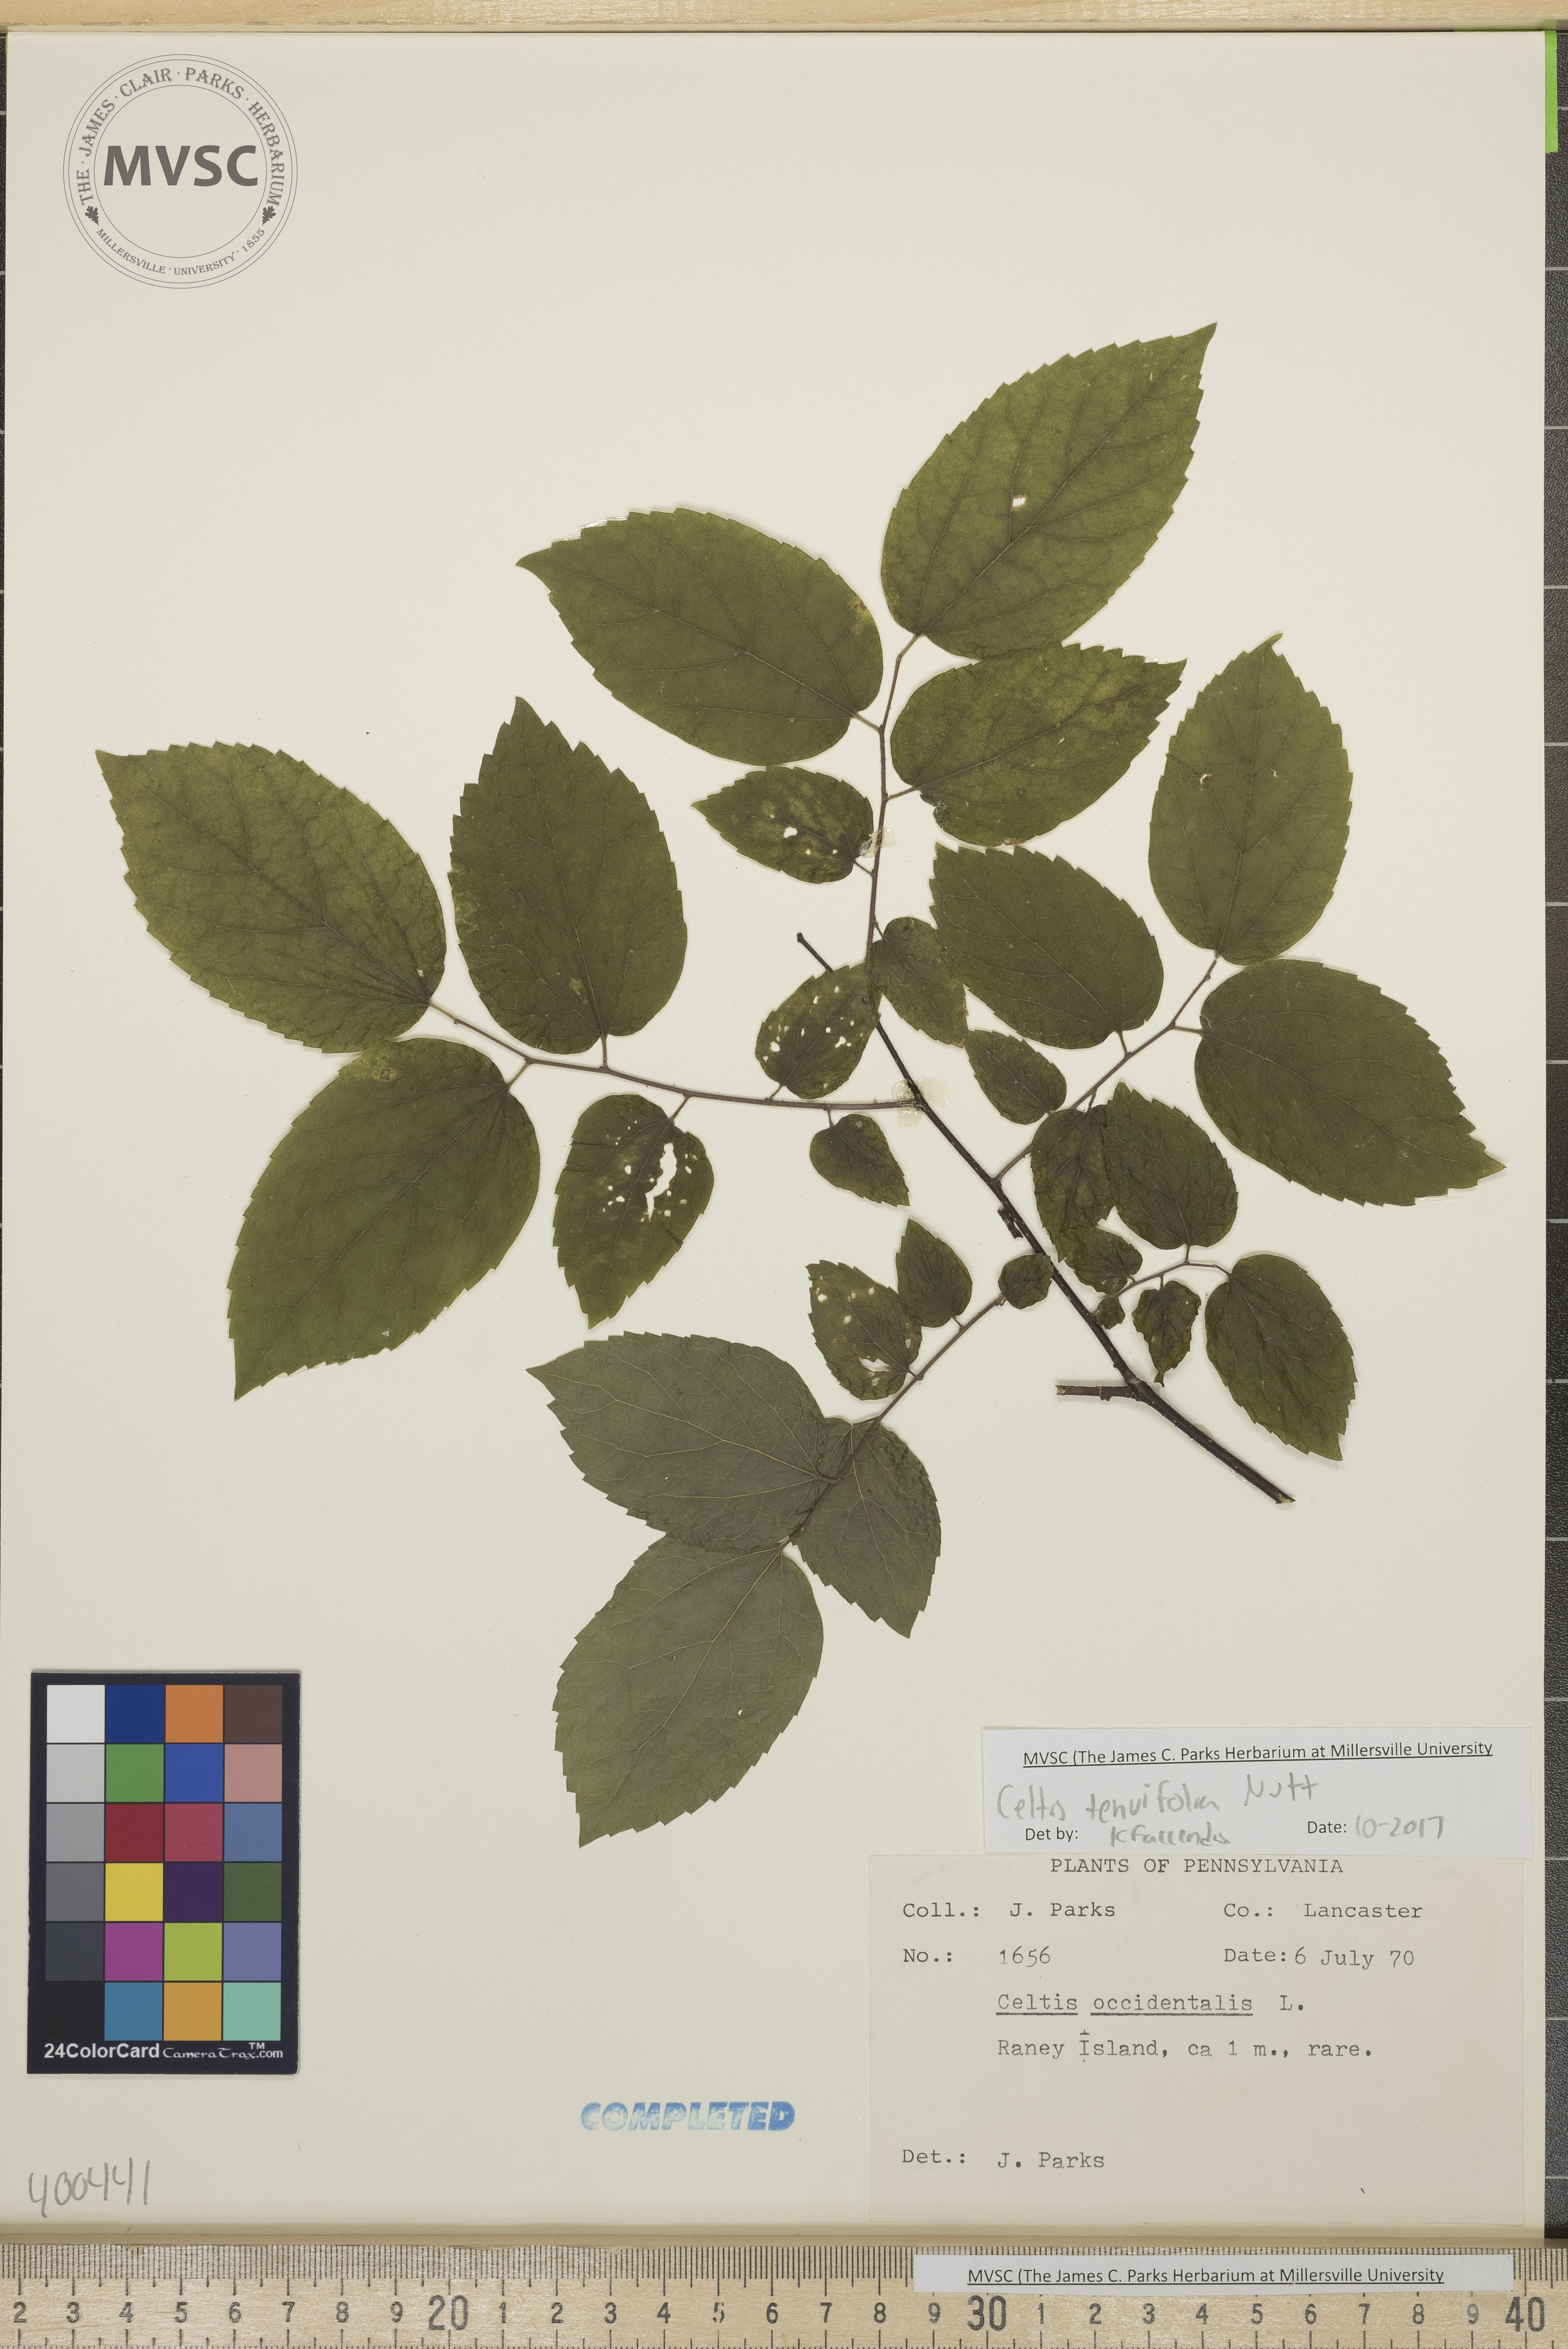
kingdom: Plantae
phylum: Tracheophyta
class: Magnoliopsida
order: Rosales
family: Cannabaceae
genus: Celtis
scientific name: Celtis tenuifolia
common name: hackberry
